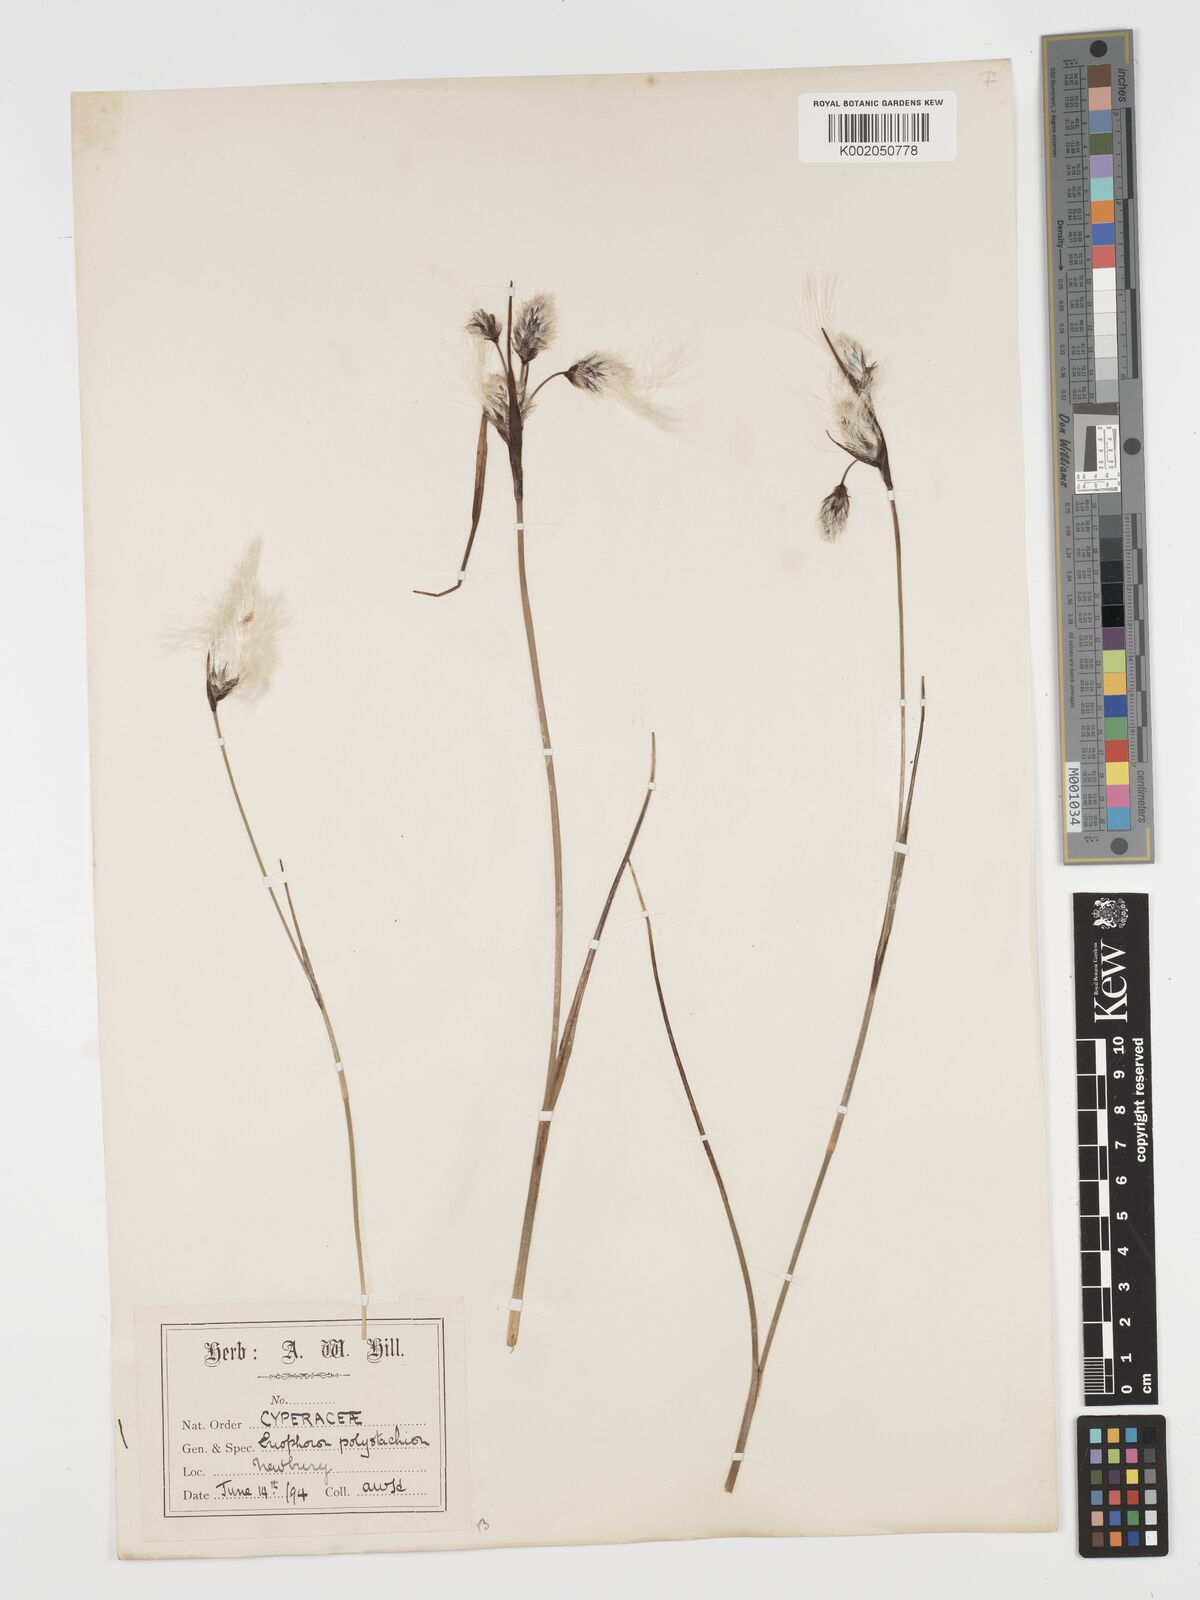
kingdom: Plantae
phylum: Tracheophyta
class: Liliopsida
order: Poales
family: Cyperaceae
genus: Eriophorum
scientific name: Eriophorum angustifolium
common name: Common cottongrass
